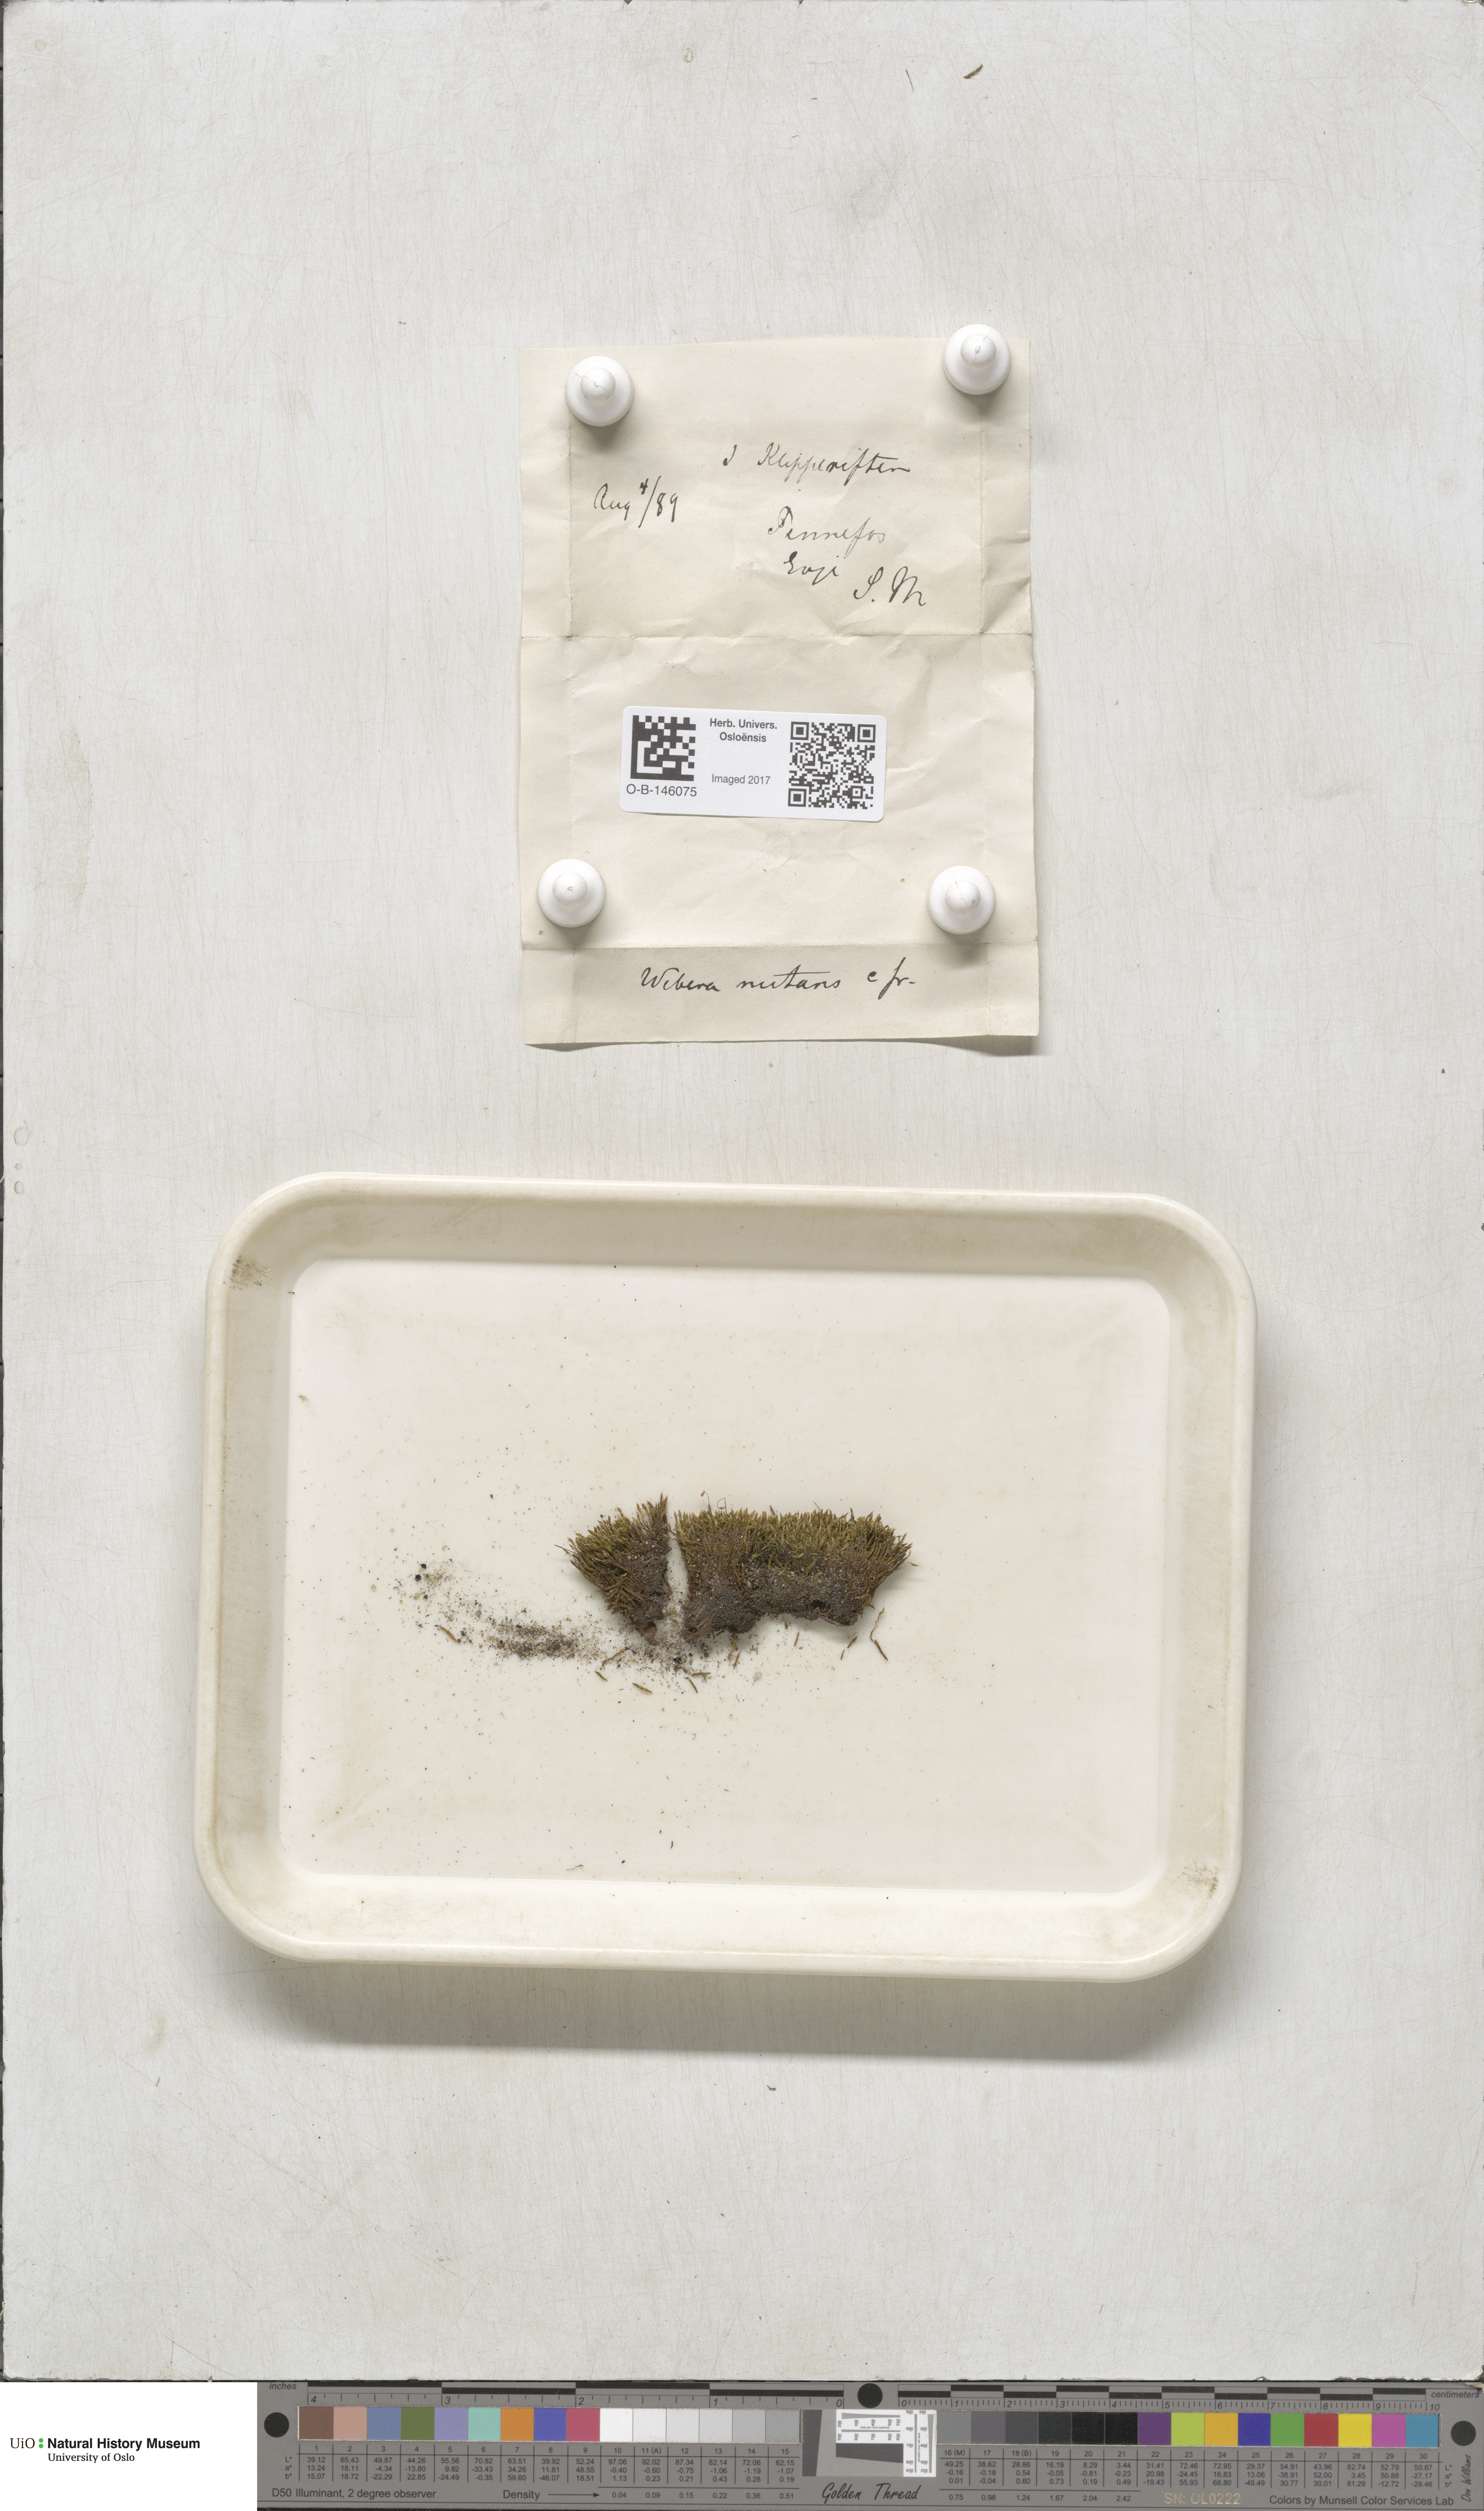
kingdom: Plantae
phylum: Bryophyta
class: Bryopsida
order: Bryales
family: Mniaceae
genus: Pohlia
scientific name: Pohlia nutans
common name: Nodding thread-moss
